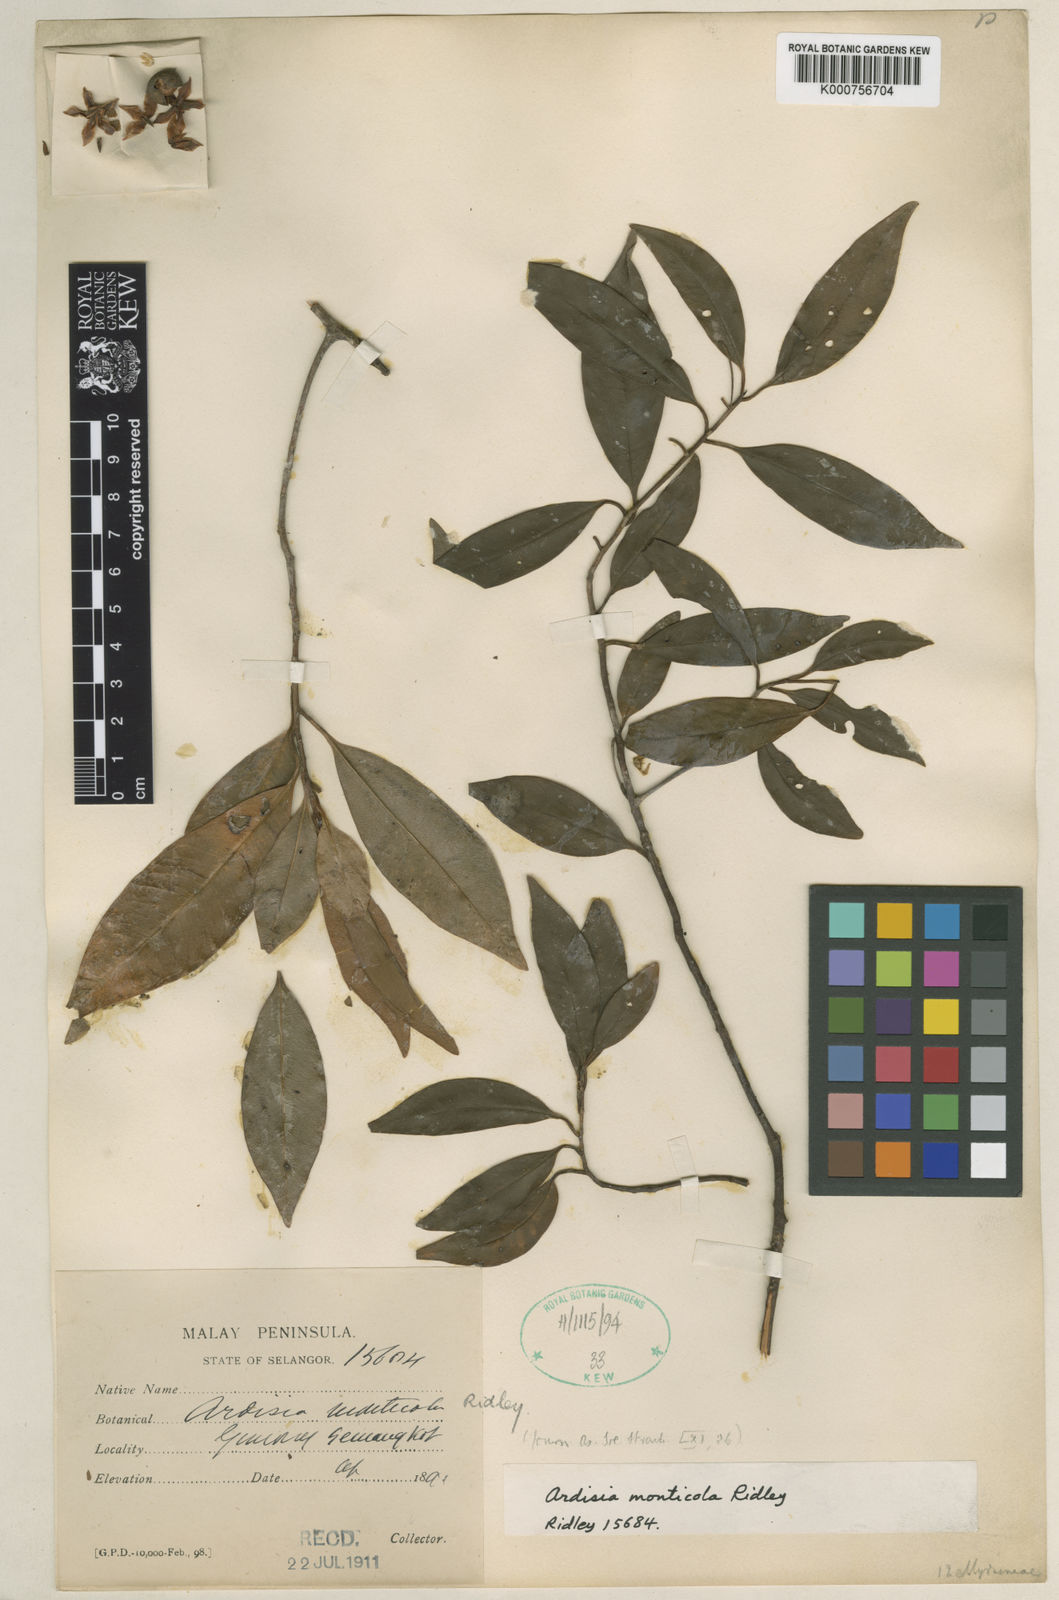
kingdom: Plantae
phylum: Tracheophyta
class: Magnoliopsida
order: Ericales
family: Primulaceae
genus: Ardisia
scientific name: Ardisia monticola
